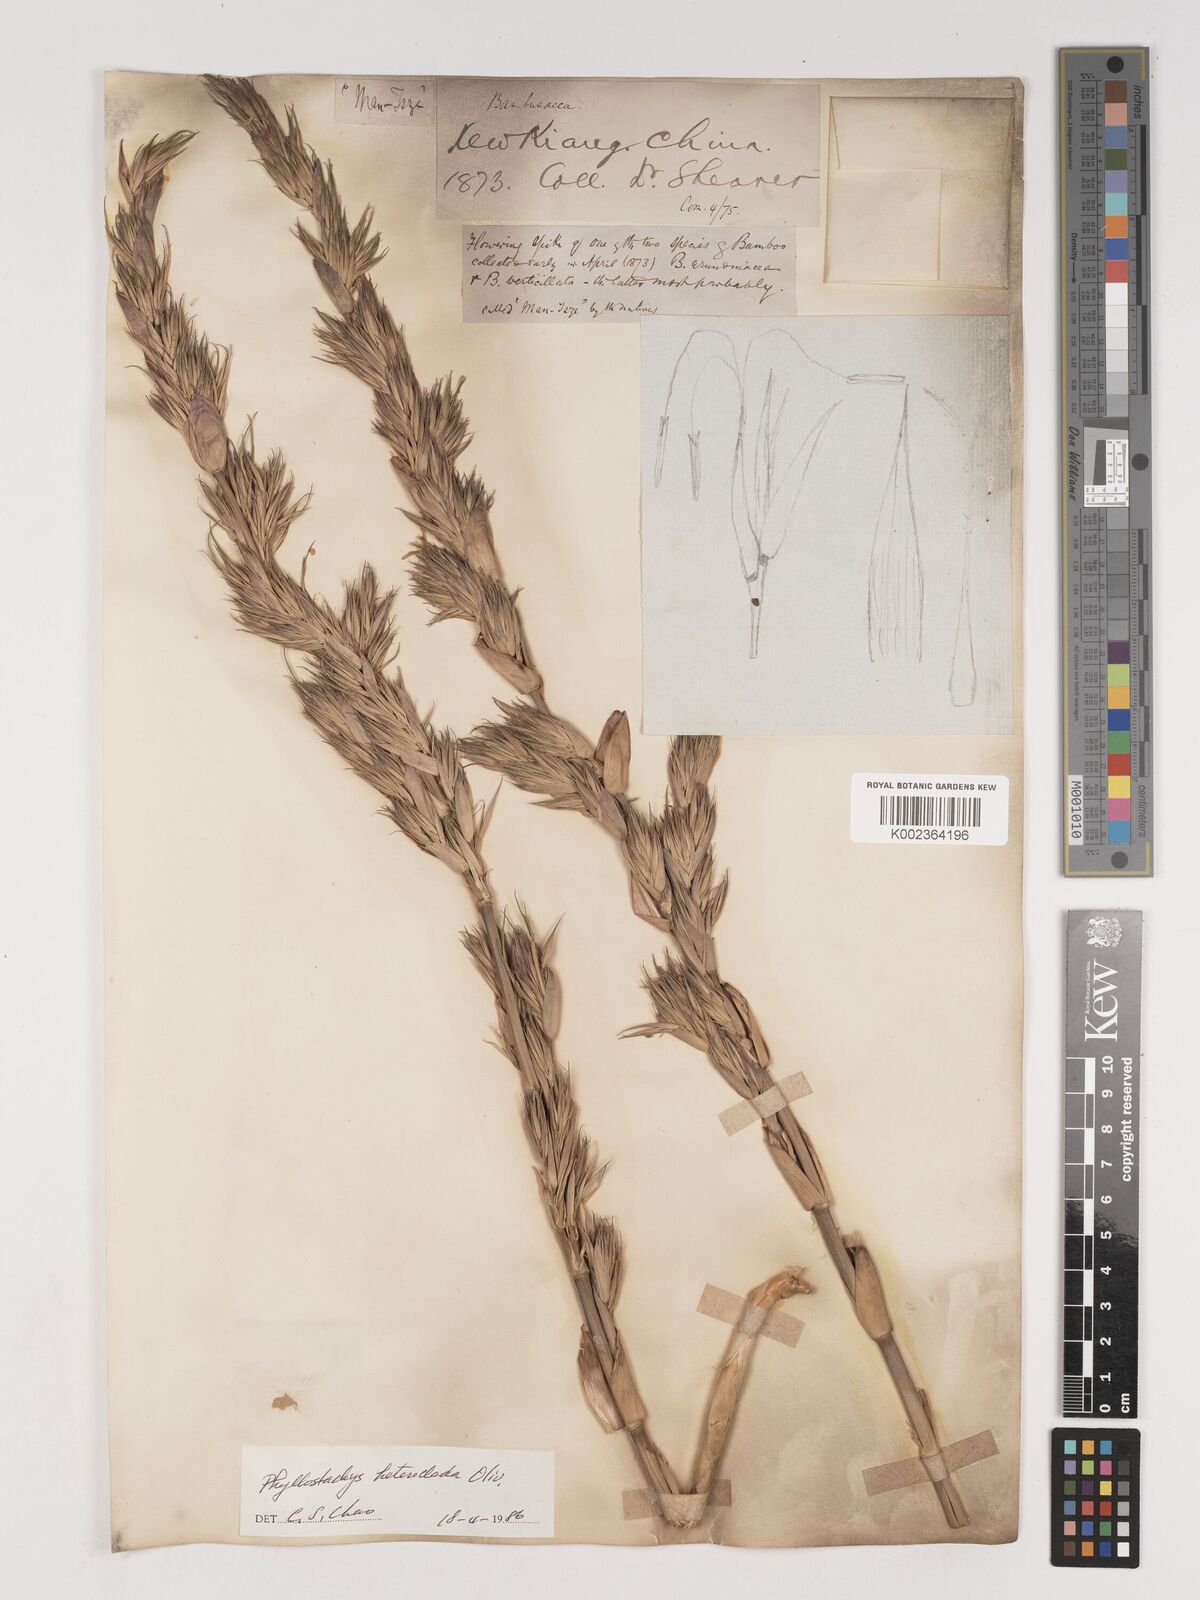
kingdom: Plantae
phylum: Tracheophyta
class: Liliopsida
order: Poales
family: Poaceae
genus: Phyllostachys
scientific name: Phyllostachys heteroclada
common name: Fishscale bamboo
